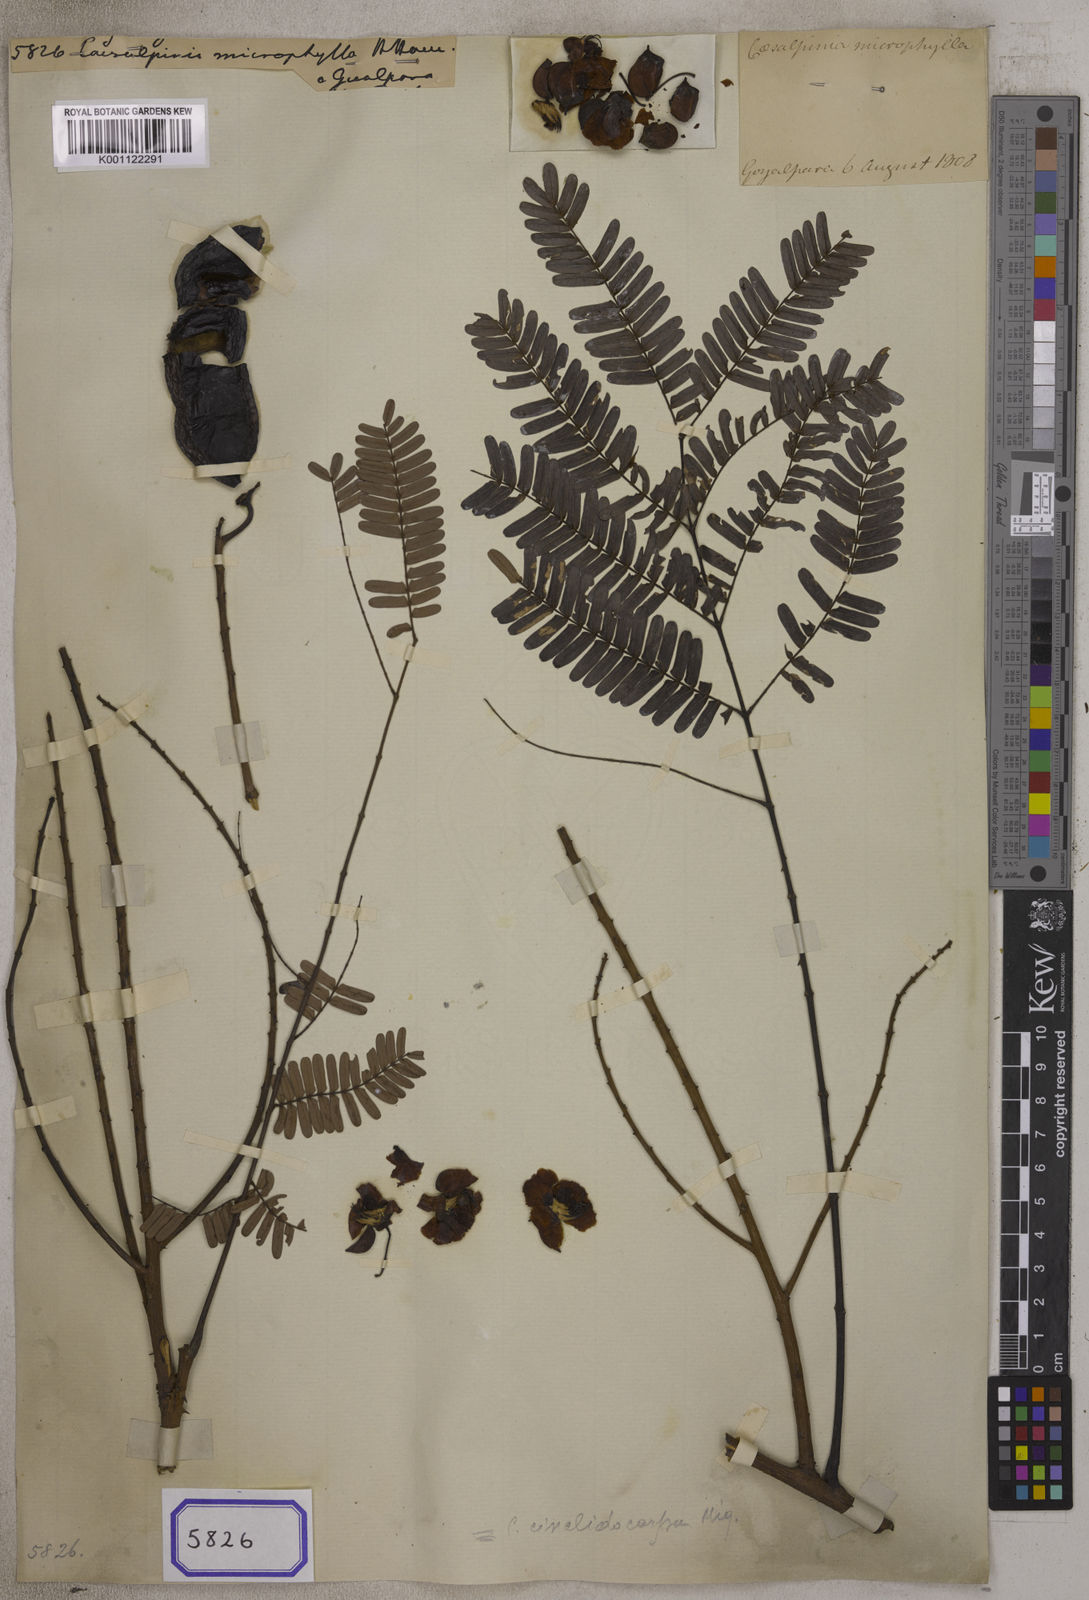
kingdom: Plantae
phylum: Tracheophyta
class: Magnoliopsida
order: Fabales
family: Fabaceae
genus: Caesalpinia
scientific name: Caesalpinia
